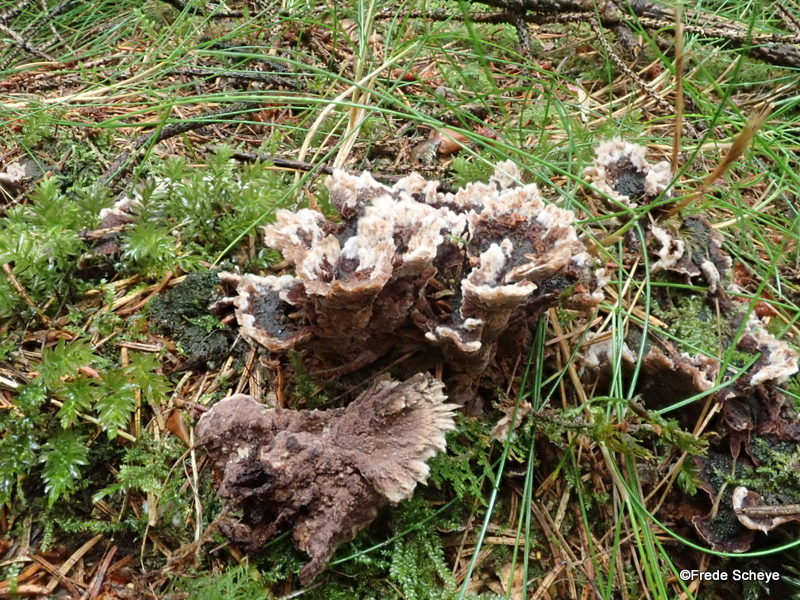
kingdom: Fungi
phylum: Basidiomycota
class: Agaricomycetes
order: Thelephorales
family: Thelephoraceae
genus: Thelephora
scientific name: Thelephora terrestris
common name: fliget frynsesvamp
